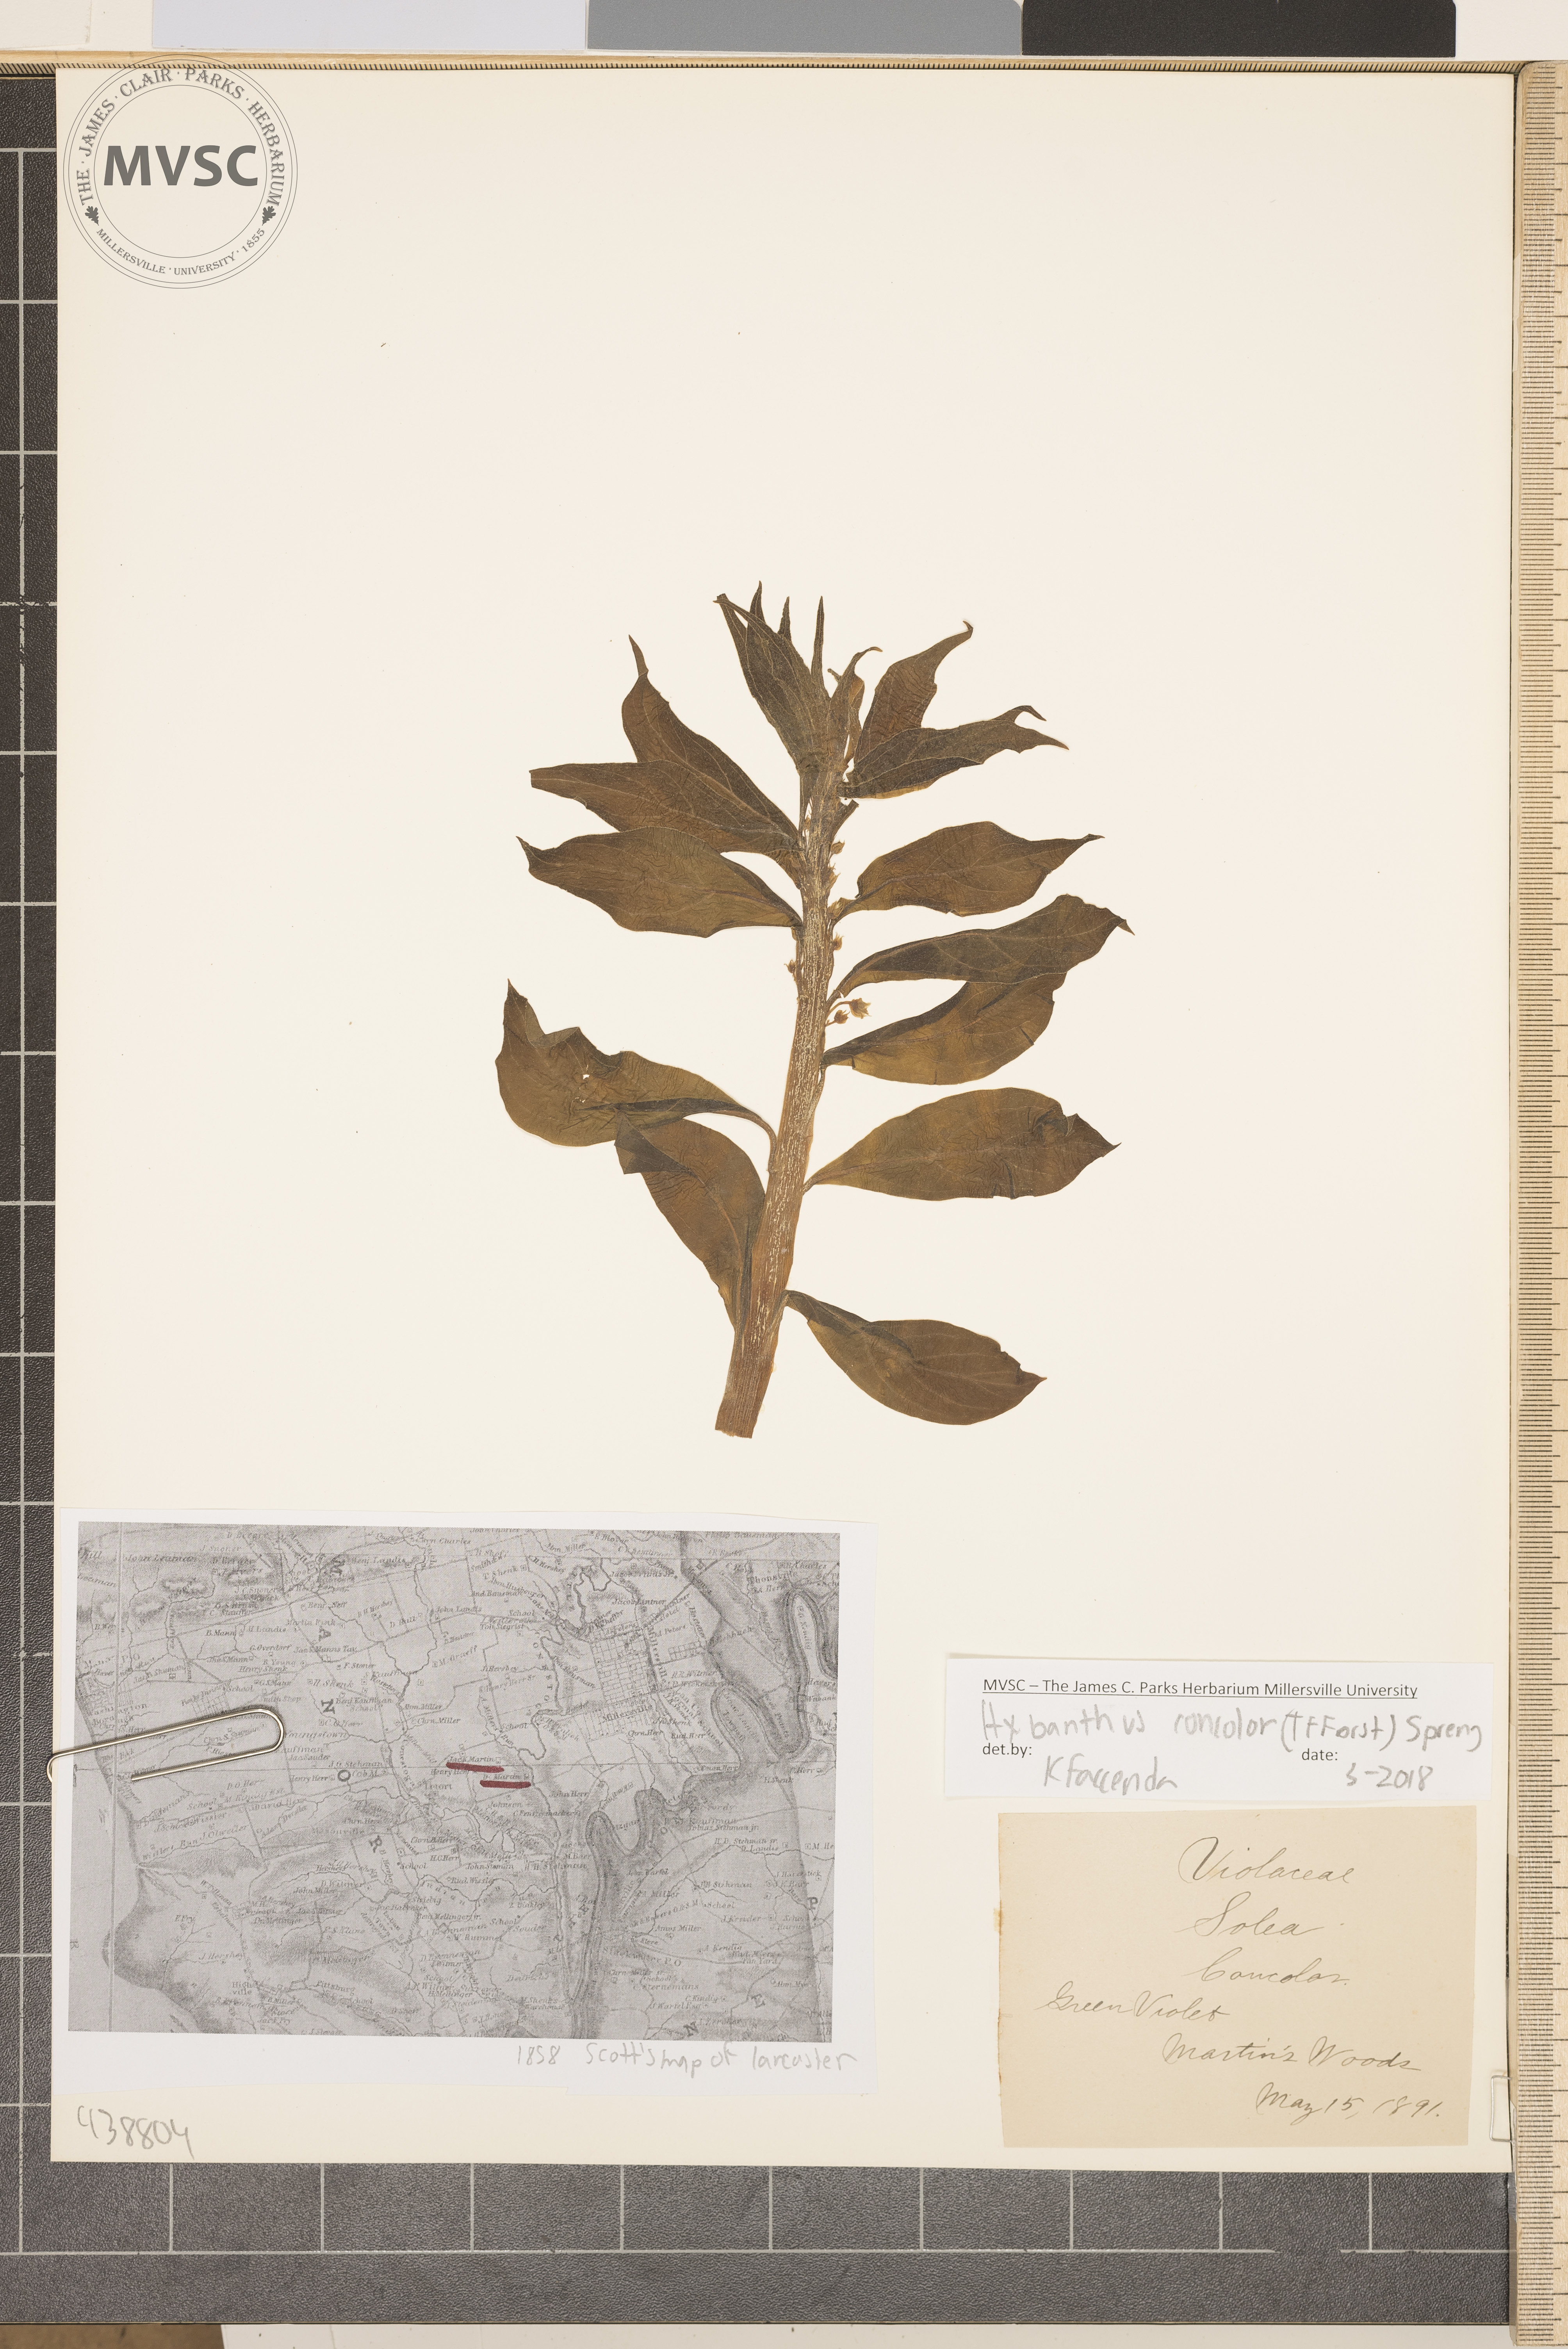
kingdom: Plantae
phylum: Tracheophyta
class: Magnoliopsida
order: Malpighiales
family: Violaceae
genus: Cubelium
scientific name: Cubelium concolor
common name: Green violet
